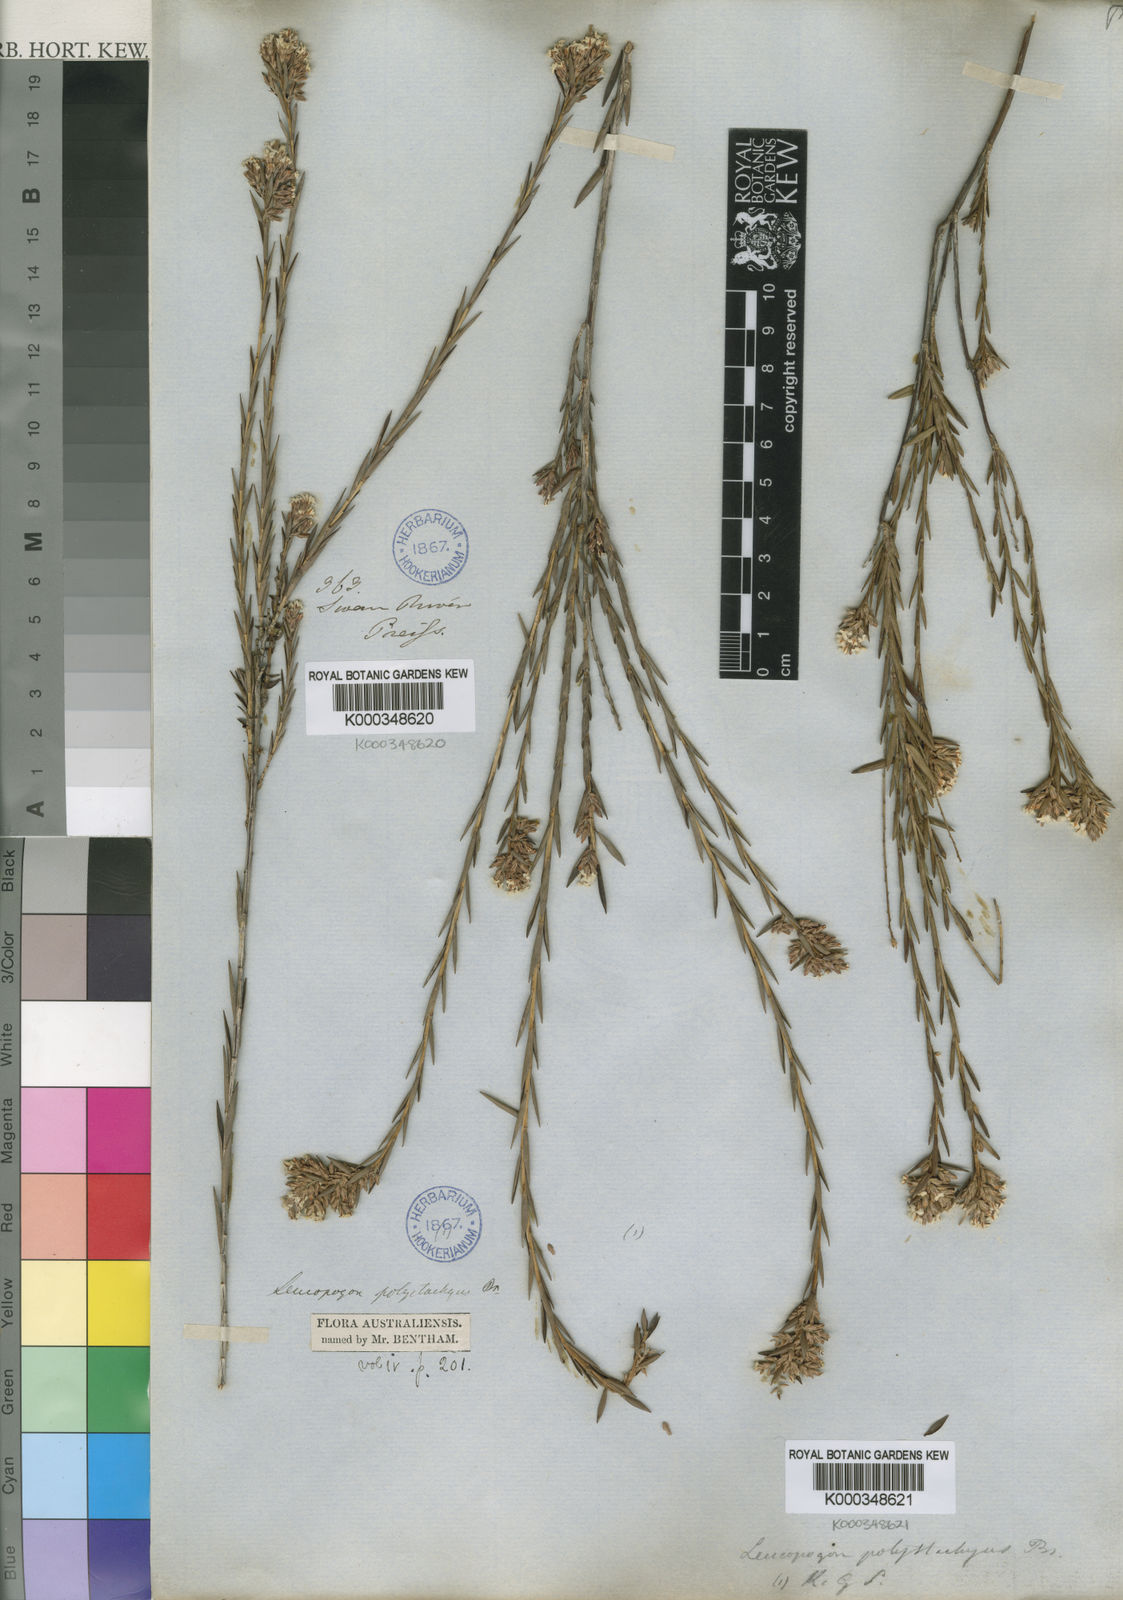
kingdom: Plantae
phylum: Tracheophyta
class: Magnoliopsida
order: Ericales
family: Ericaceae
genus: Leucopogon
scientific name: Leucopogon polystachyus
